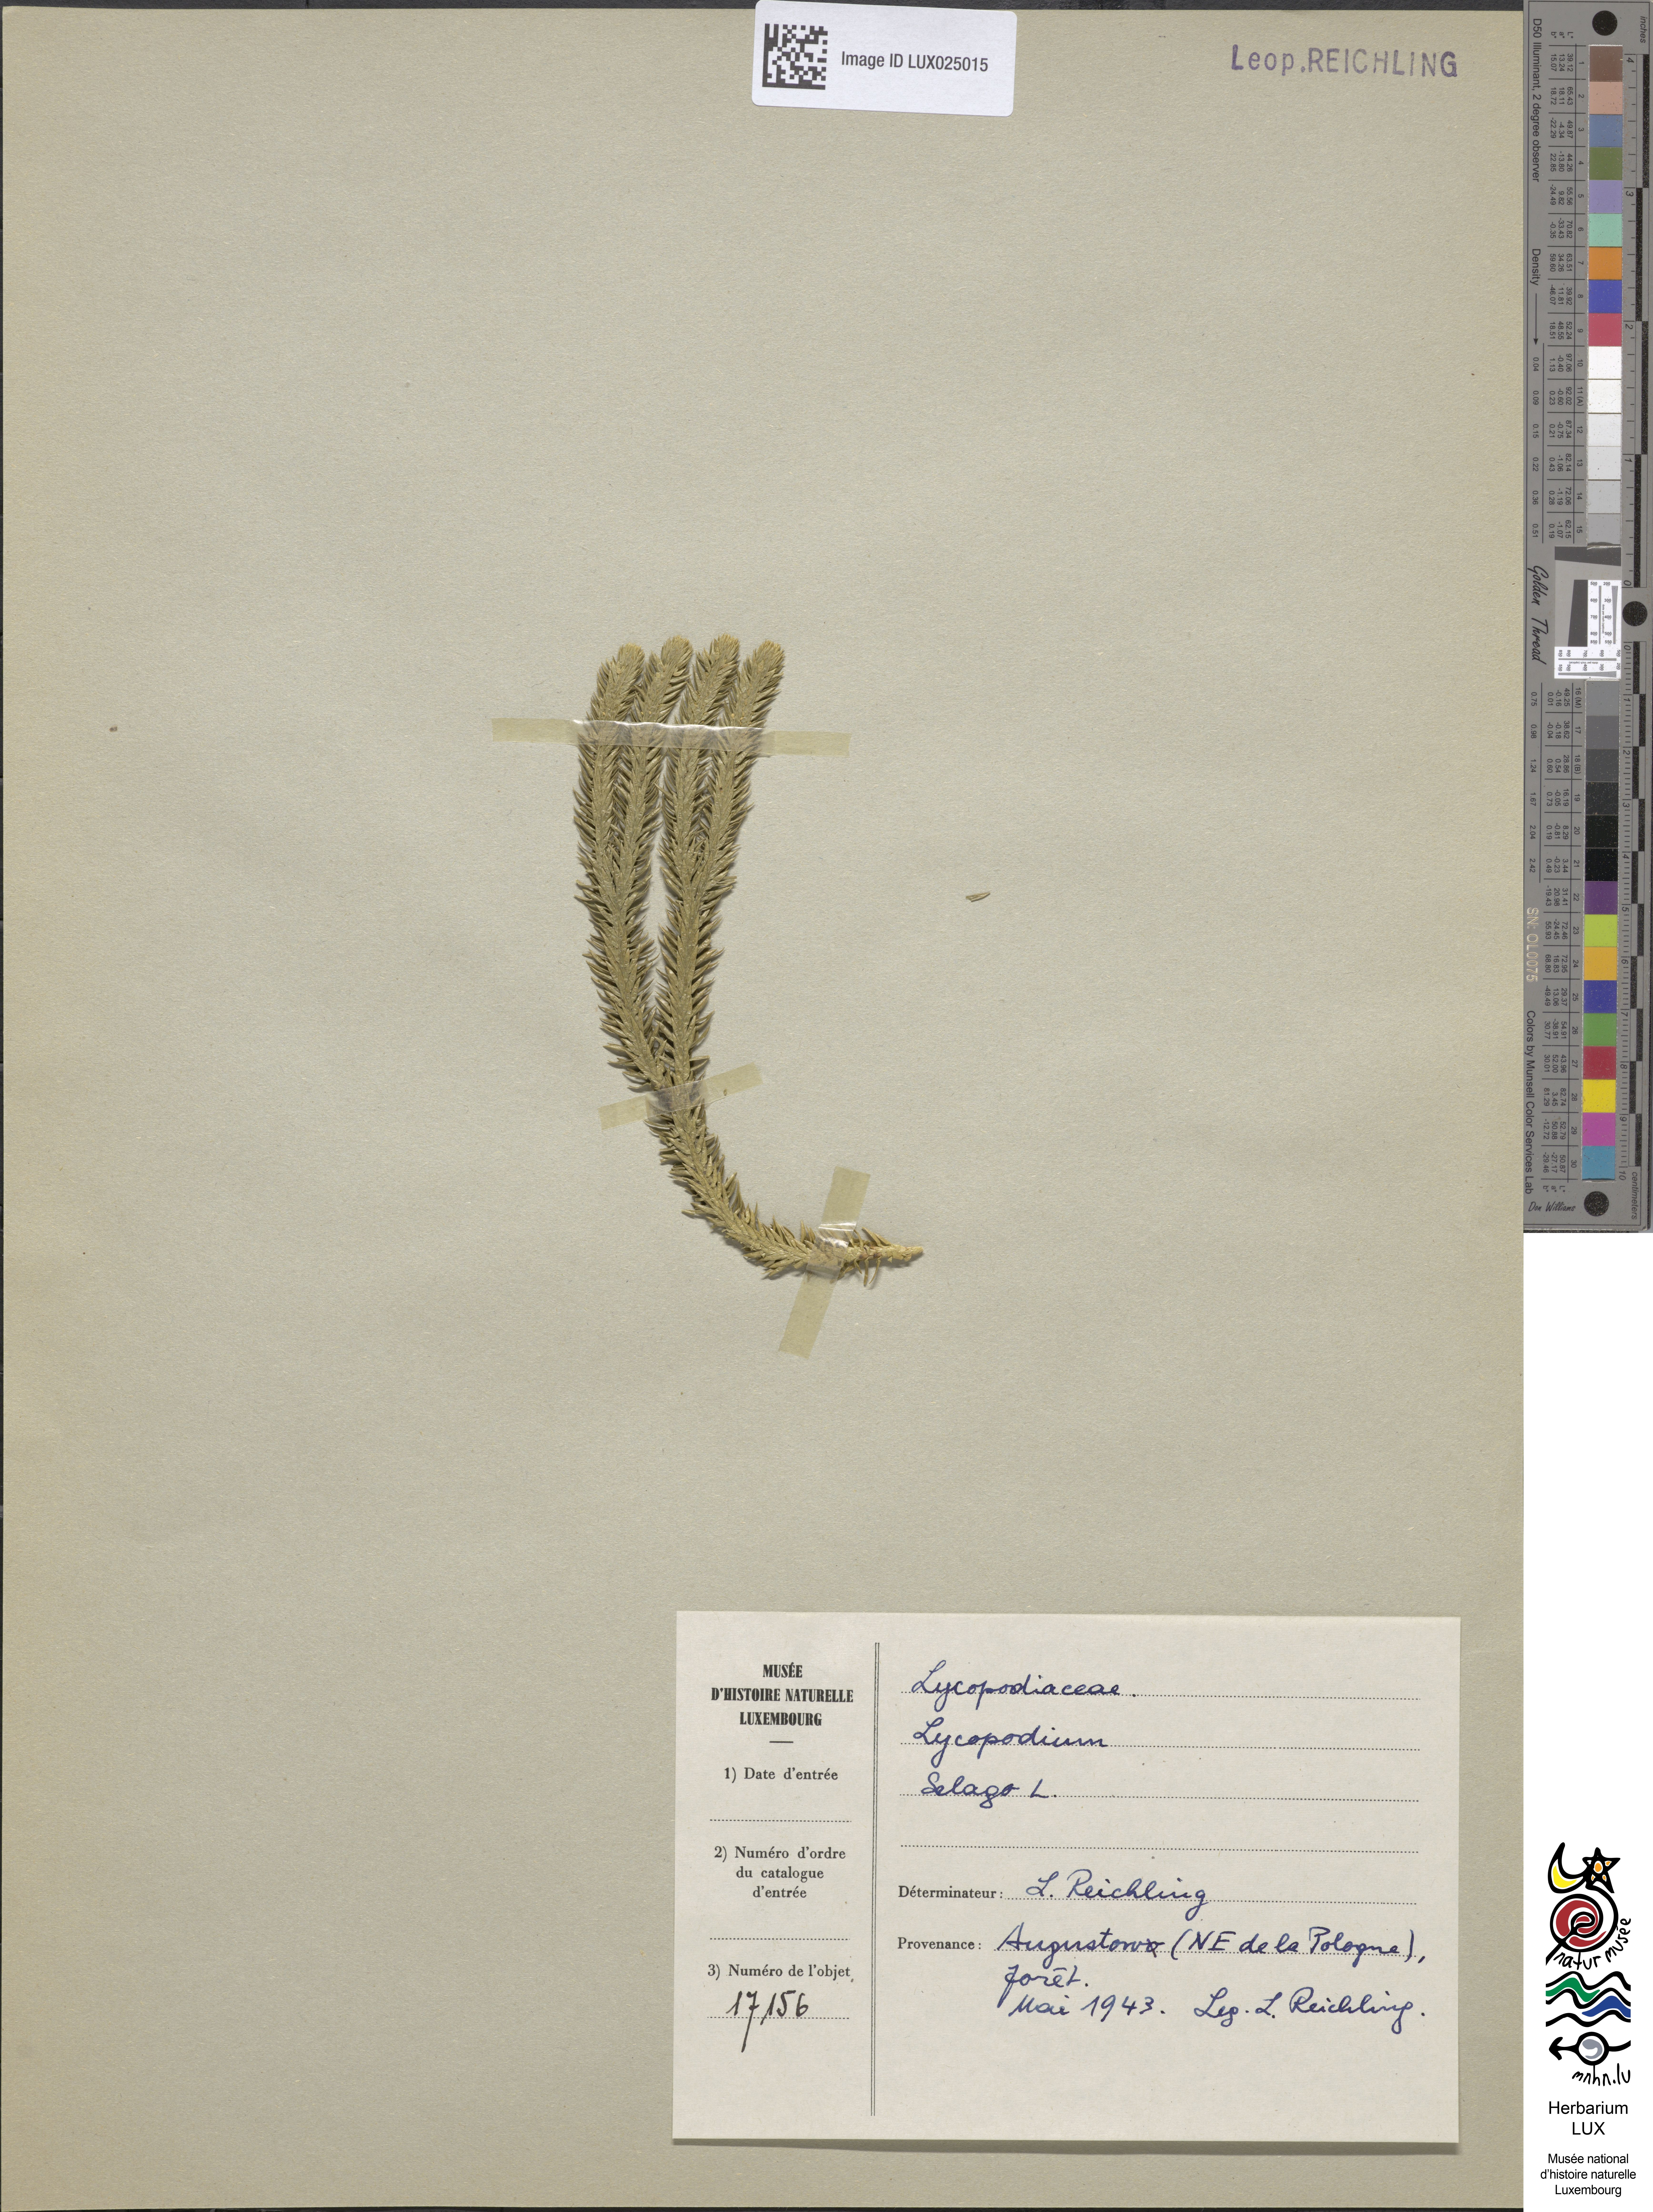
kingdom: Plantae
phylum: Tracheophyta
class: Lycopodiopsida
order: Lycopodiales
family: Lycopodiaceae
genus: Huperzia
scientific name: Huperzia selago
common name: Northern firmoss
